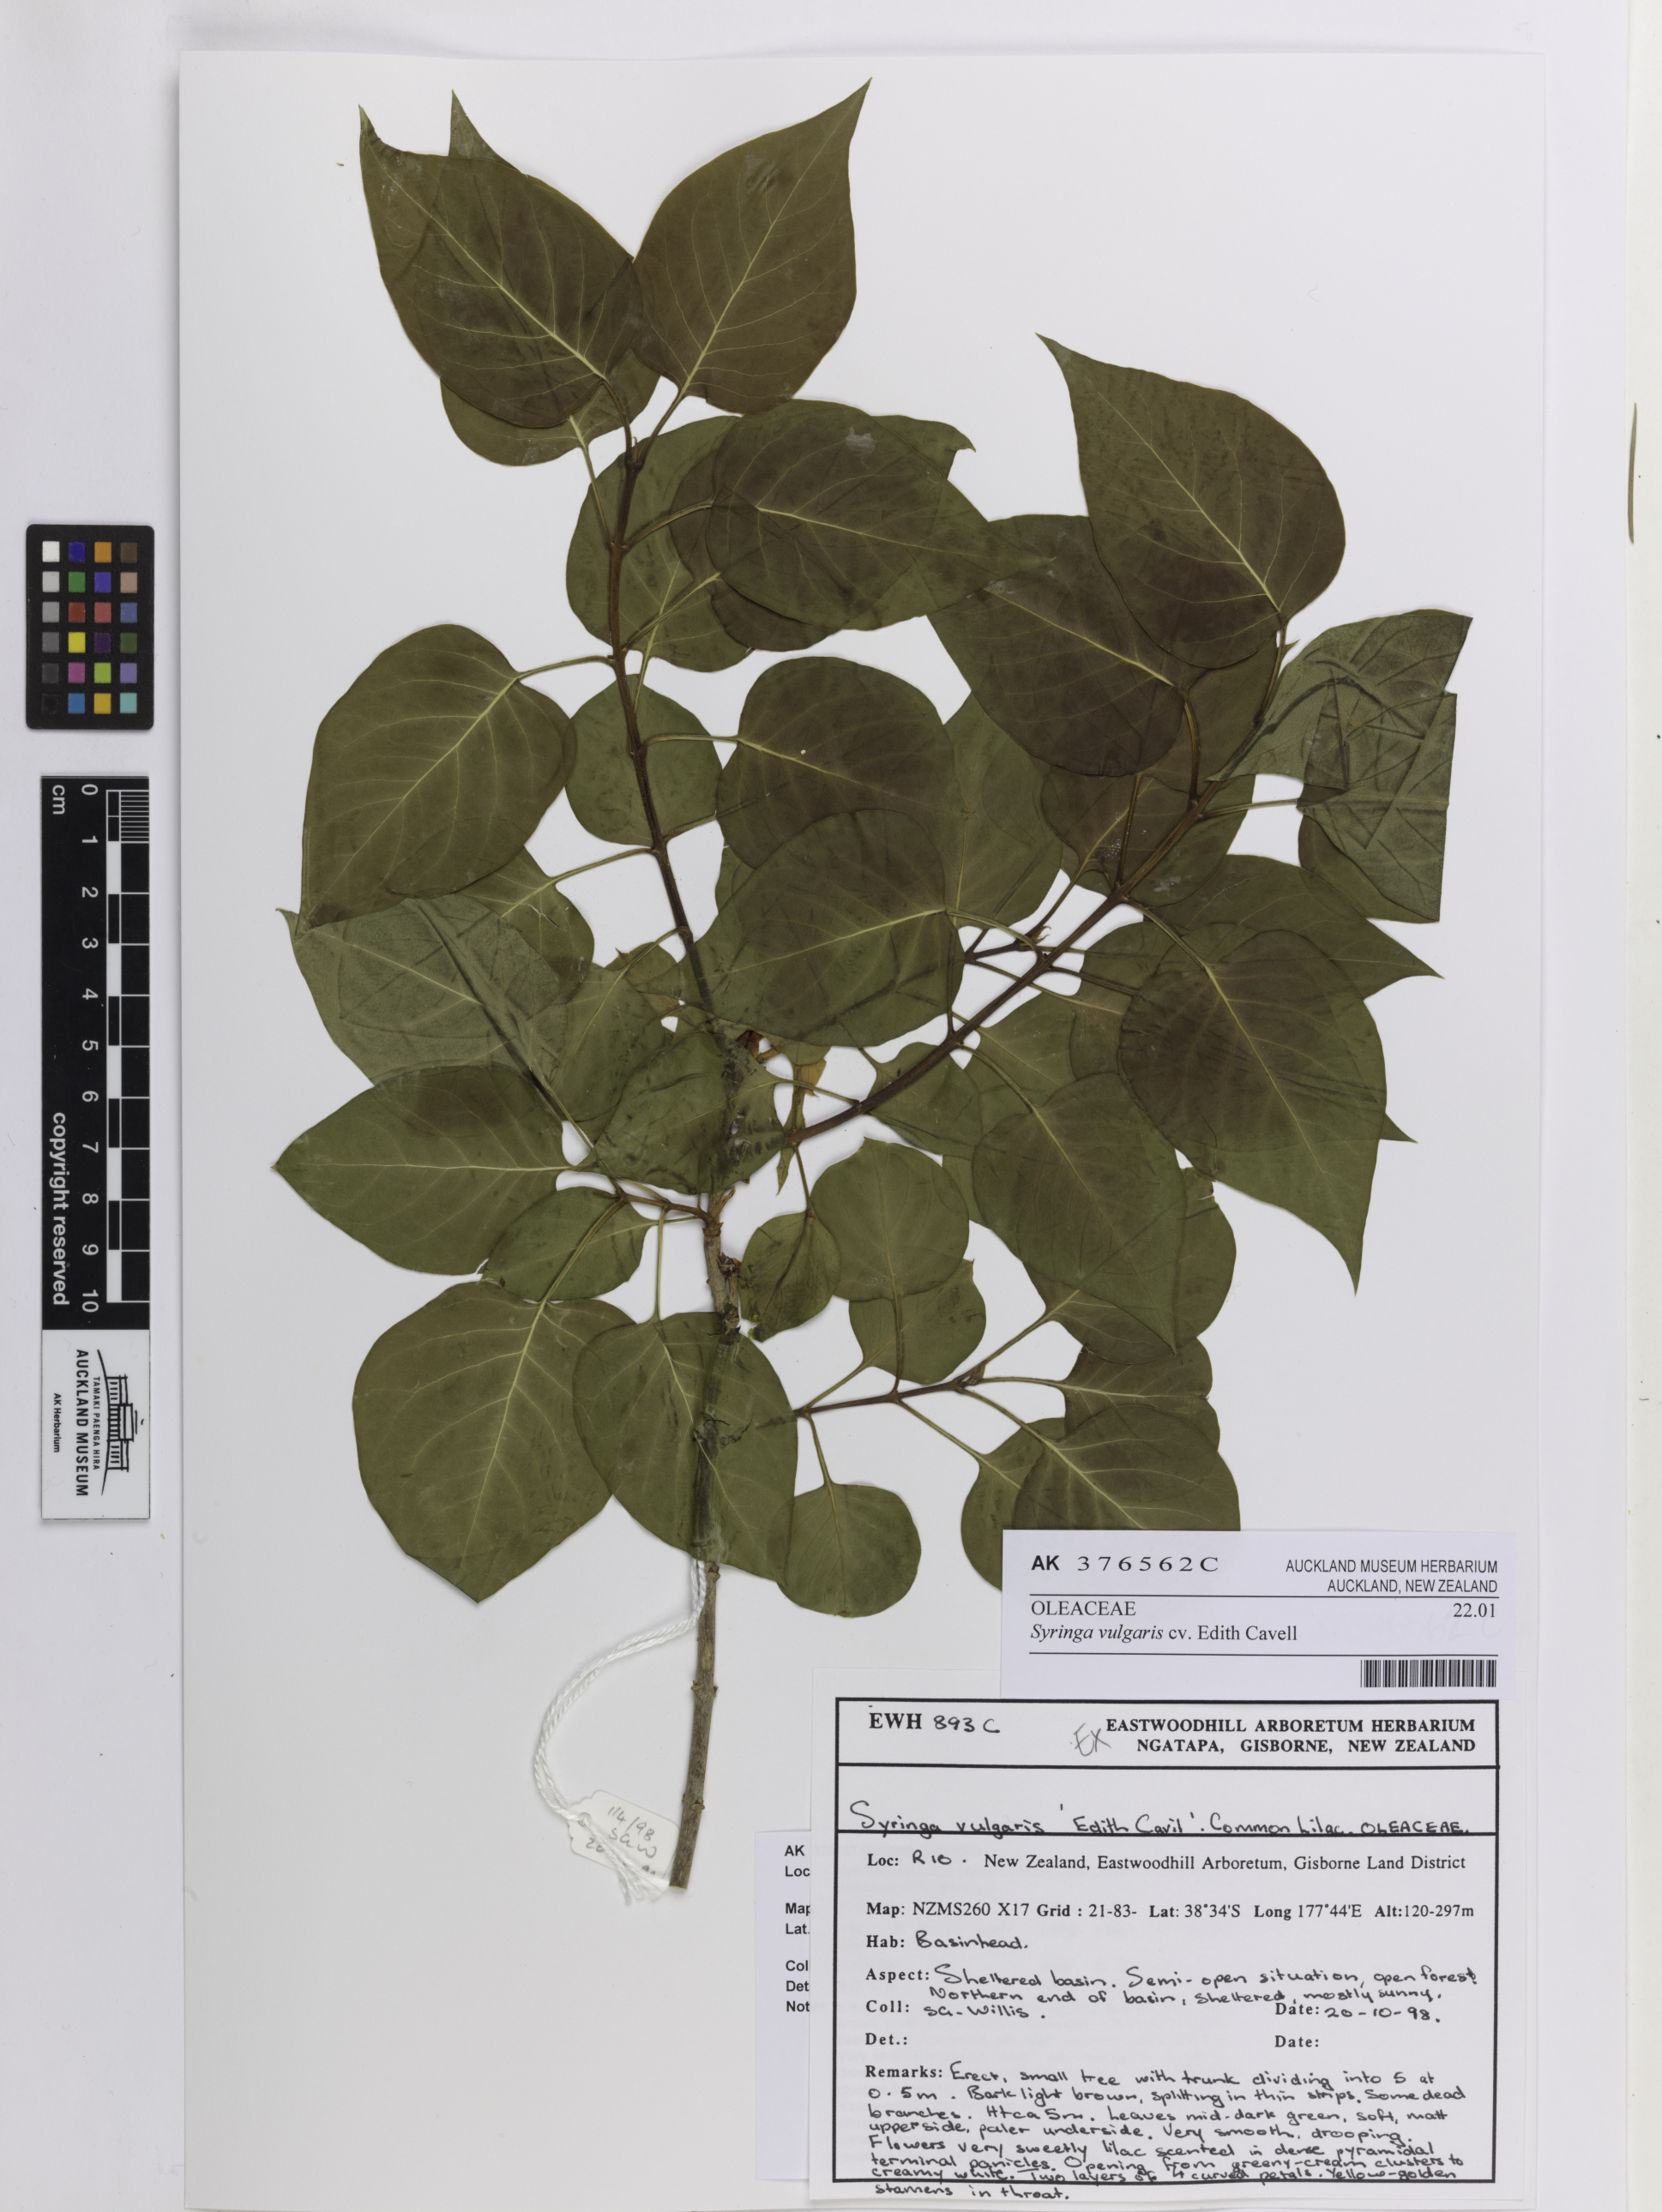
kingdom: Plantae
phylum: Tracheophyta
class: Magnoliopsida
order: Lamiales
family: Oleaceae
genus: Syringa
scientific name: Syringa vulgaris
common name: Common lilac
